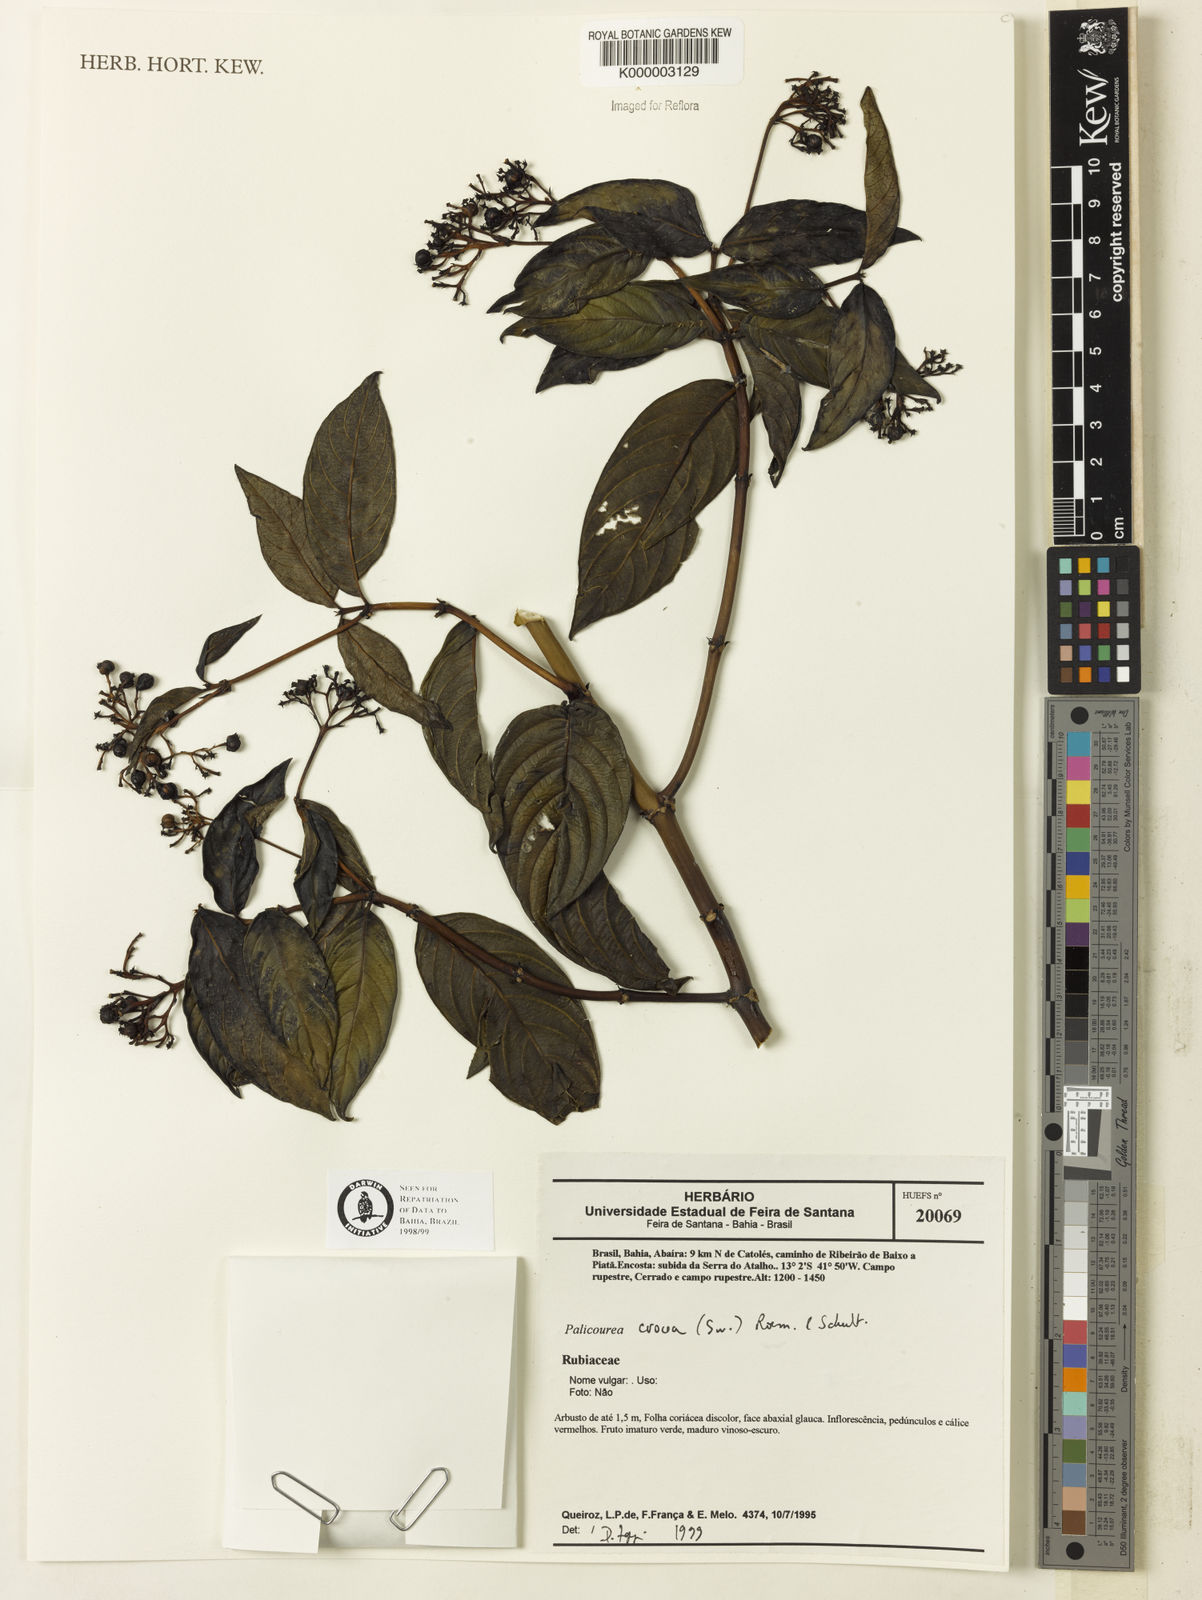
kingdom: Plantae
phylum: Tracheophyta
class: Magnoliopsida
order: Gentianales
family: Rubiaceae
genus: Palicourea
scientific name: Palicourea marcgravii
